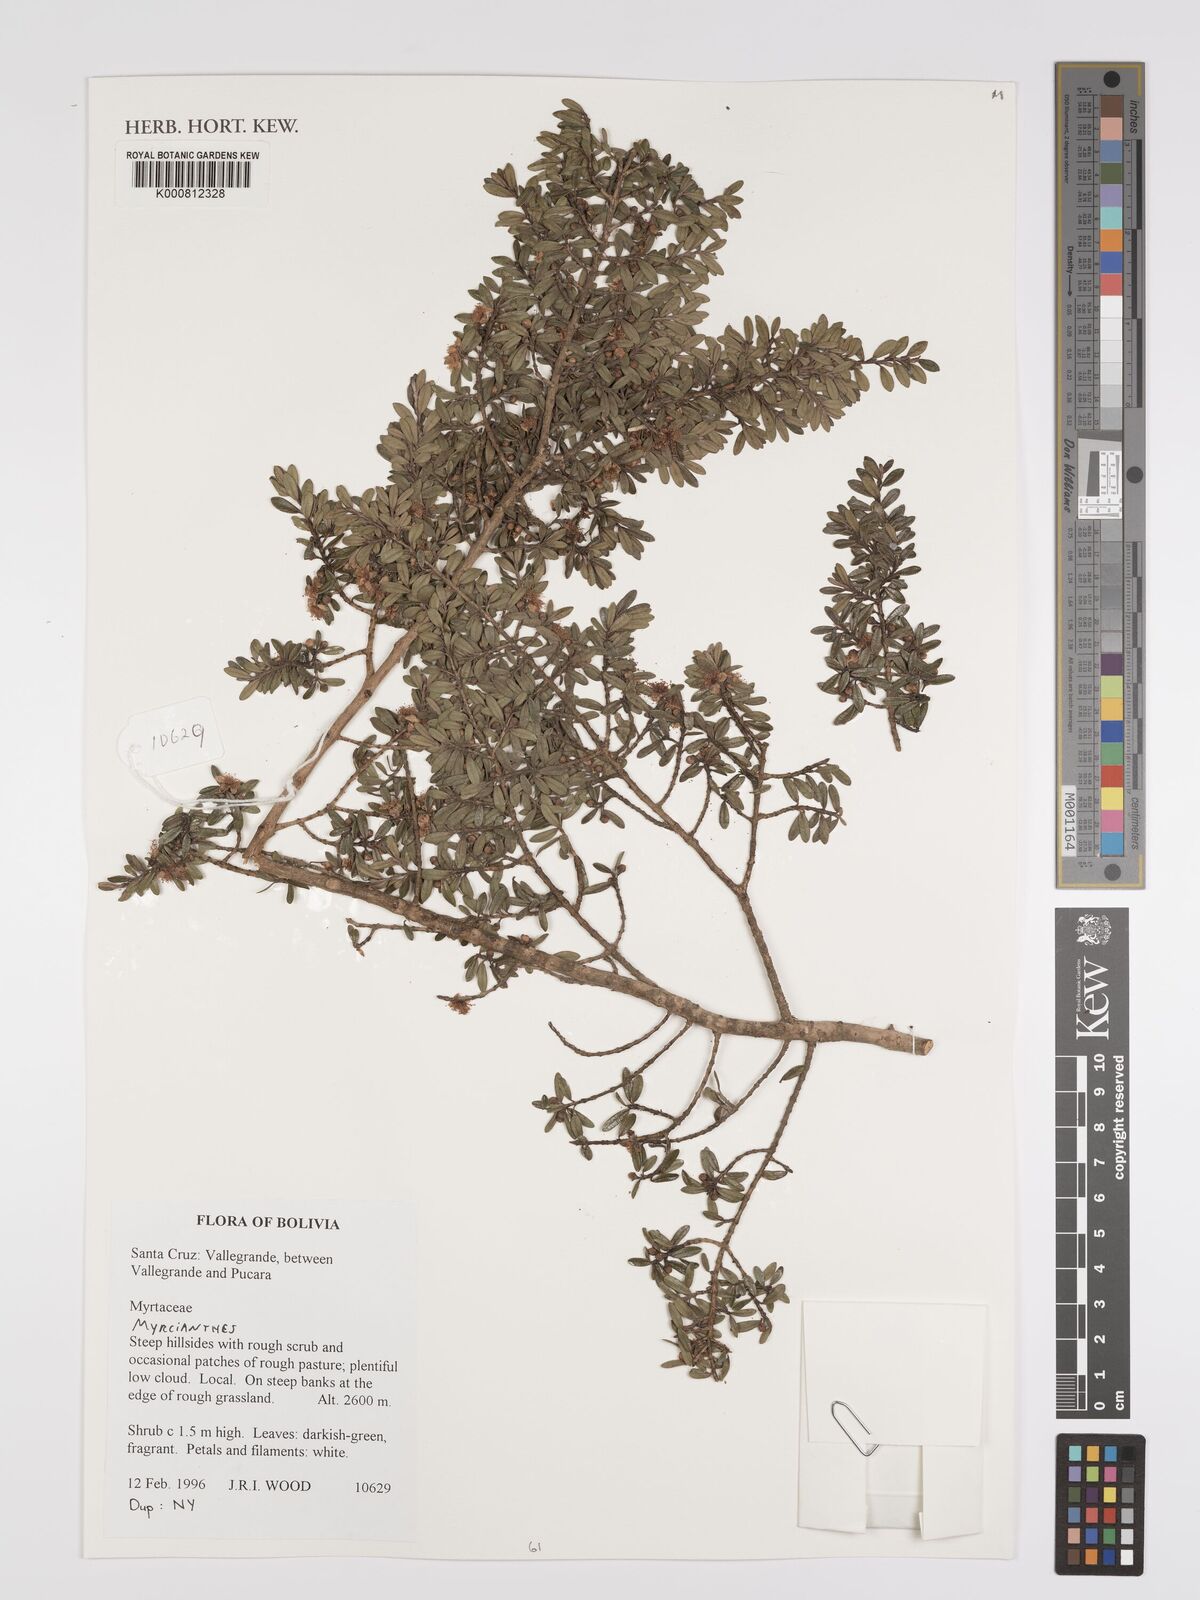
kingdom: Plantae
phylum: Tracheophyta
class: Magnoliopsida
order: Myrtales
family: Myrtaceae
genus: Myrcianthes
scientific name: Myrcianthes
